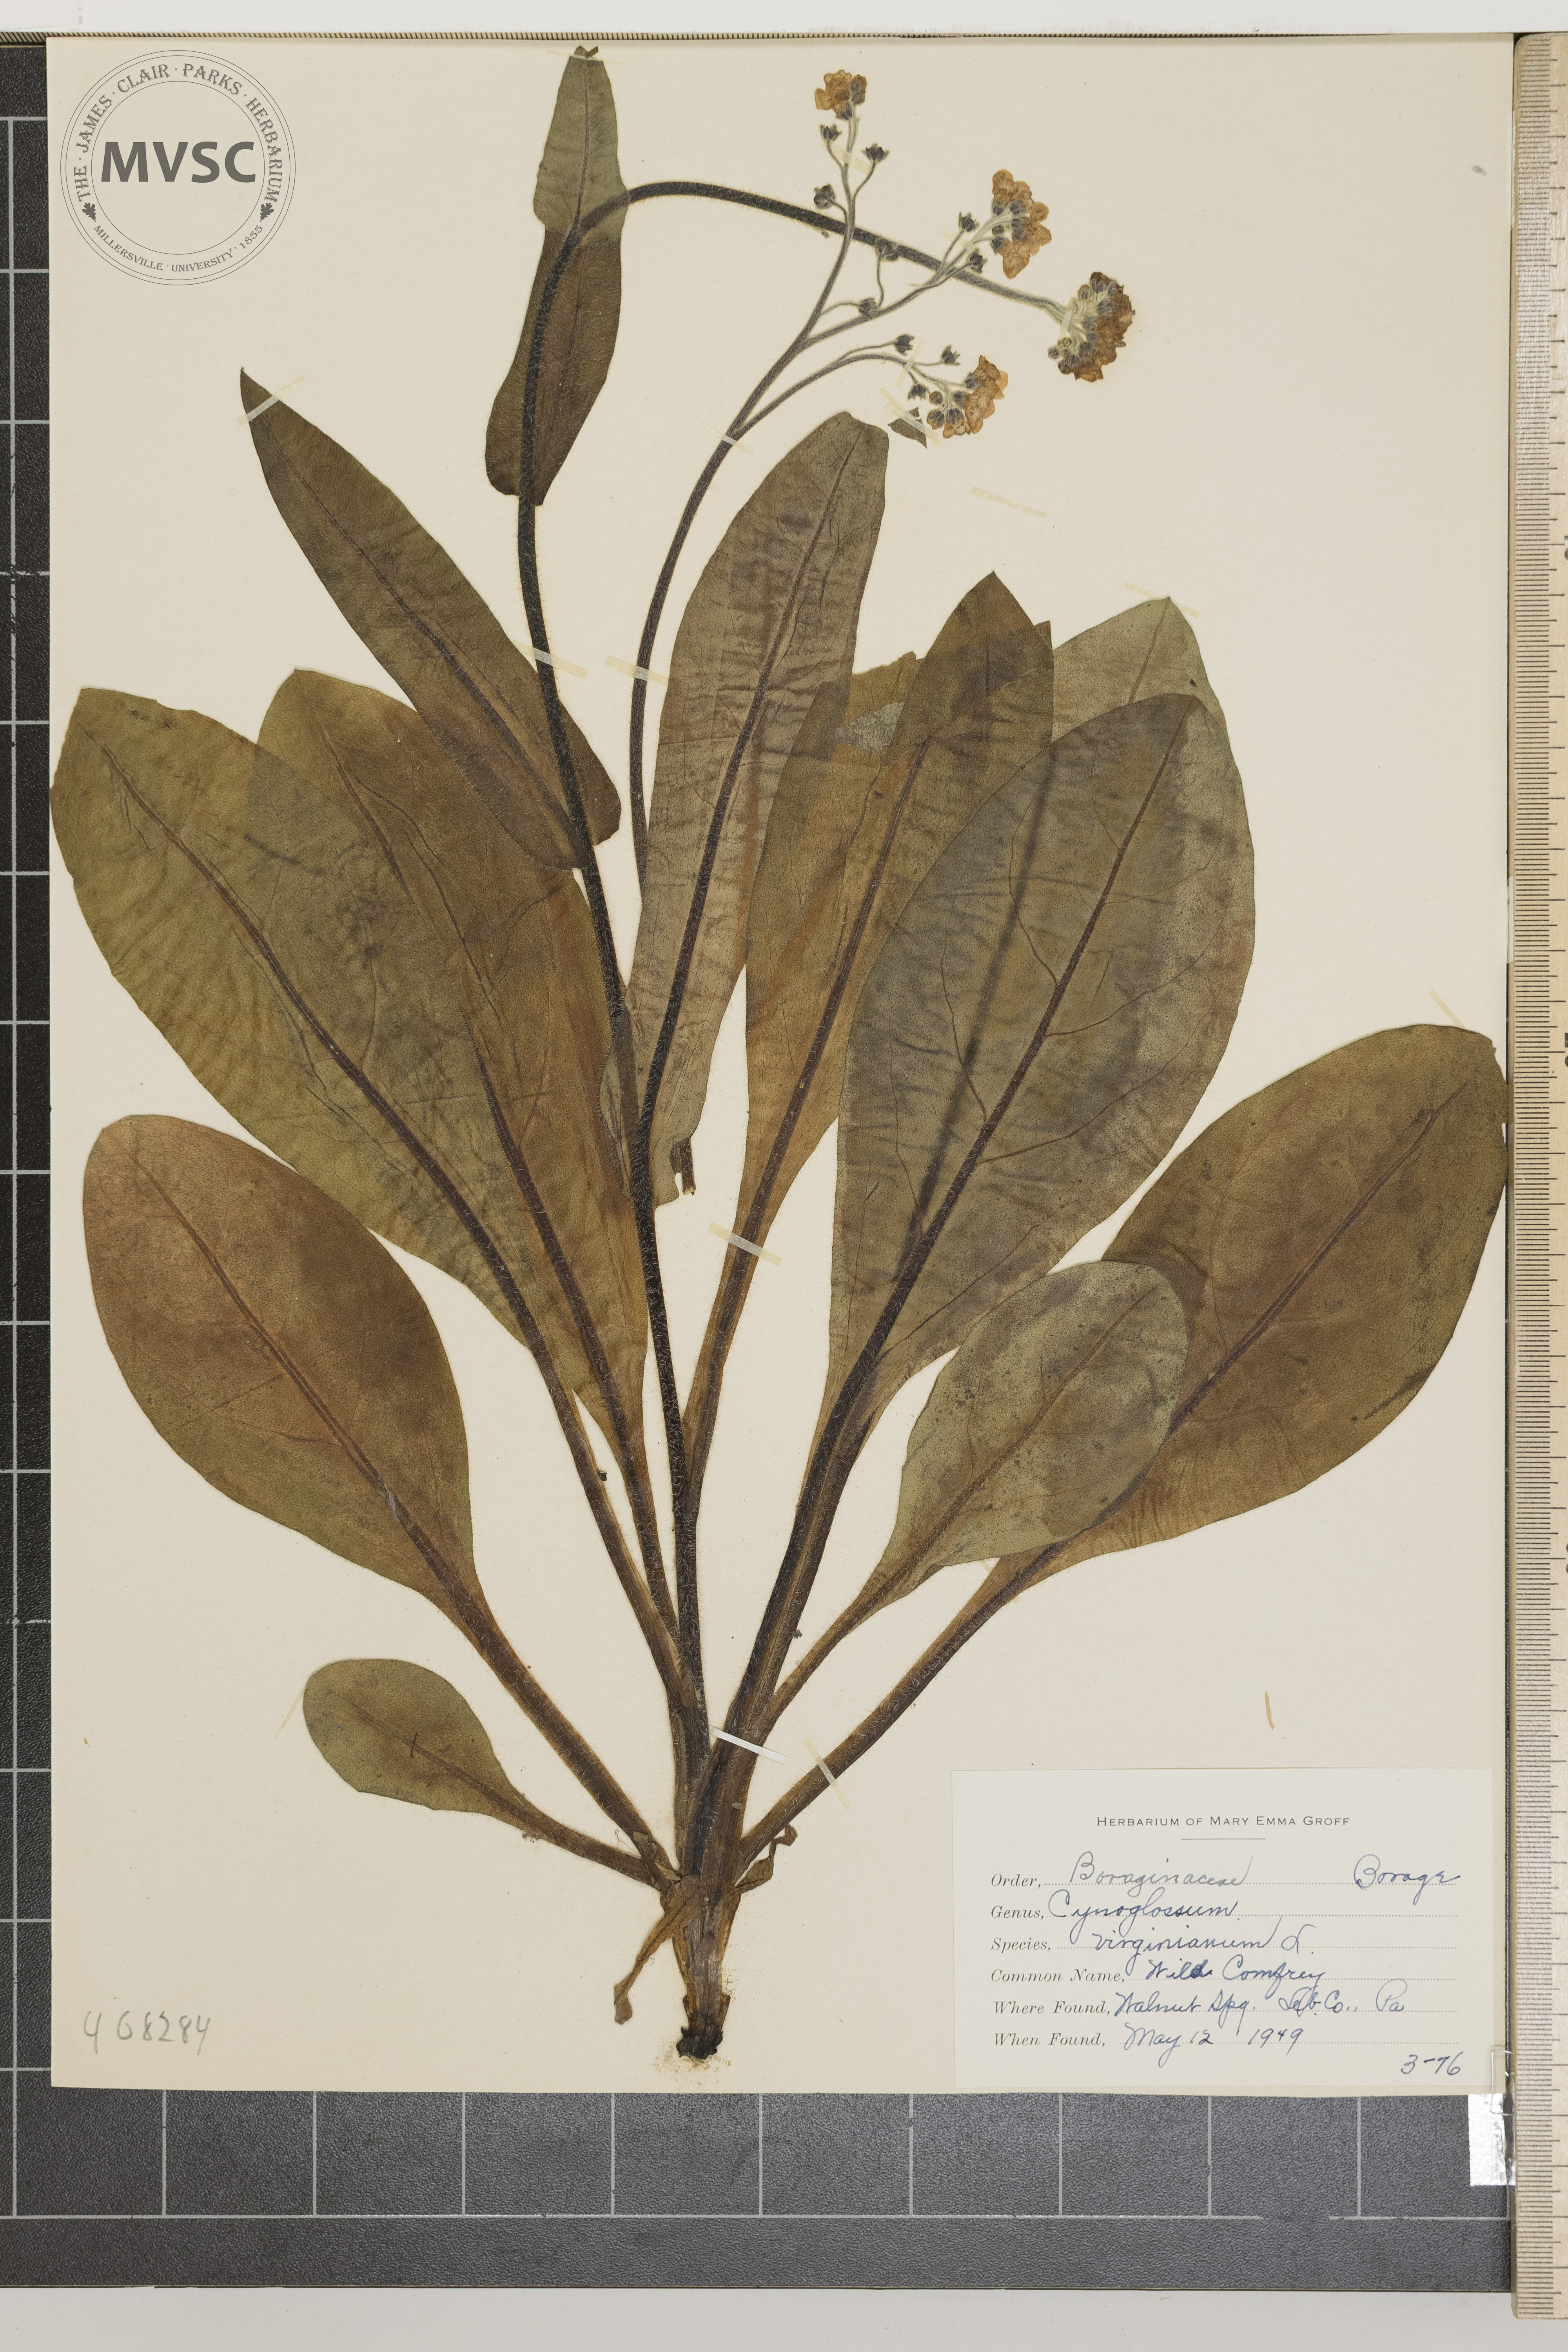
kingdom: Plantae
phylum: Tracheophyta
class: Magnoliopsida
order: Boraginales
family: Boraginaceae
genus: Andersonglossum
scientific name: Andersonglossum virginianum
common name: Wild Comfrey
